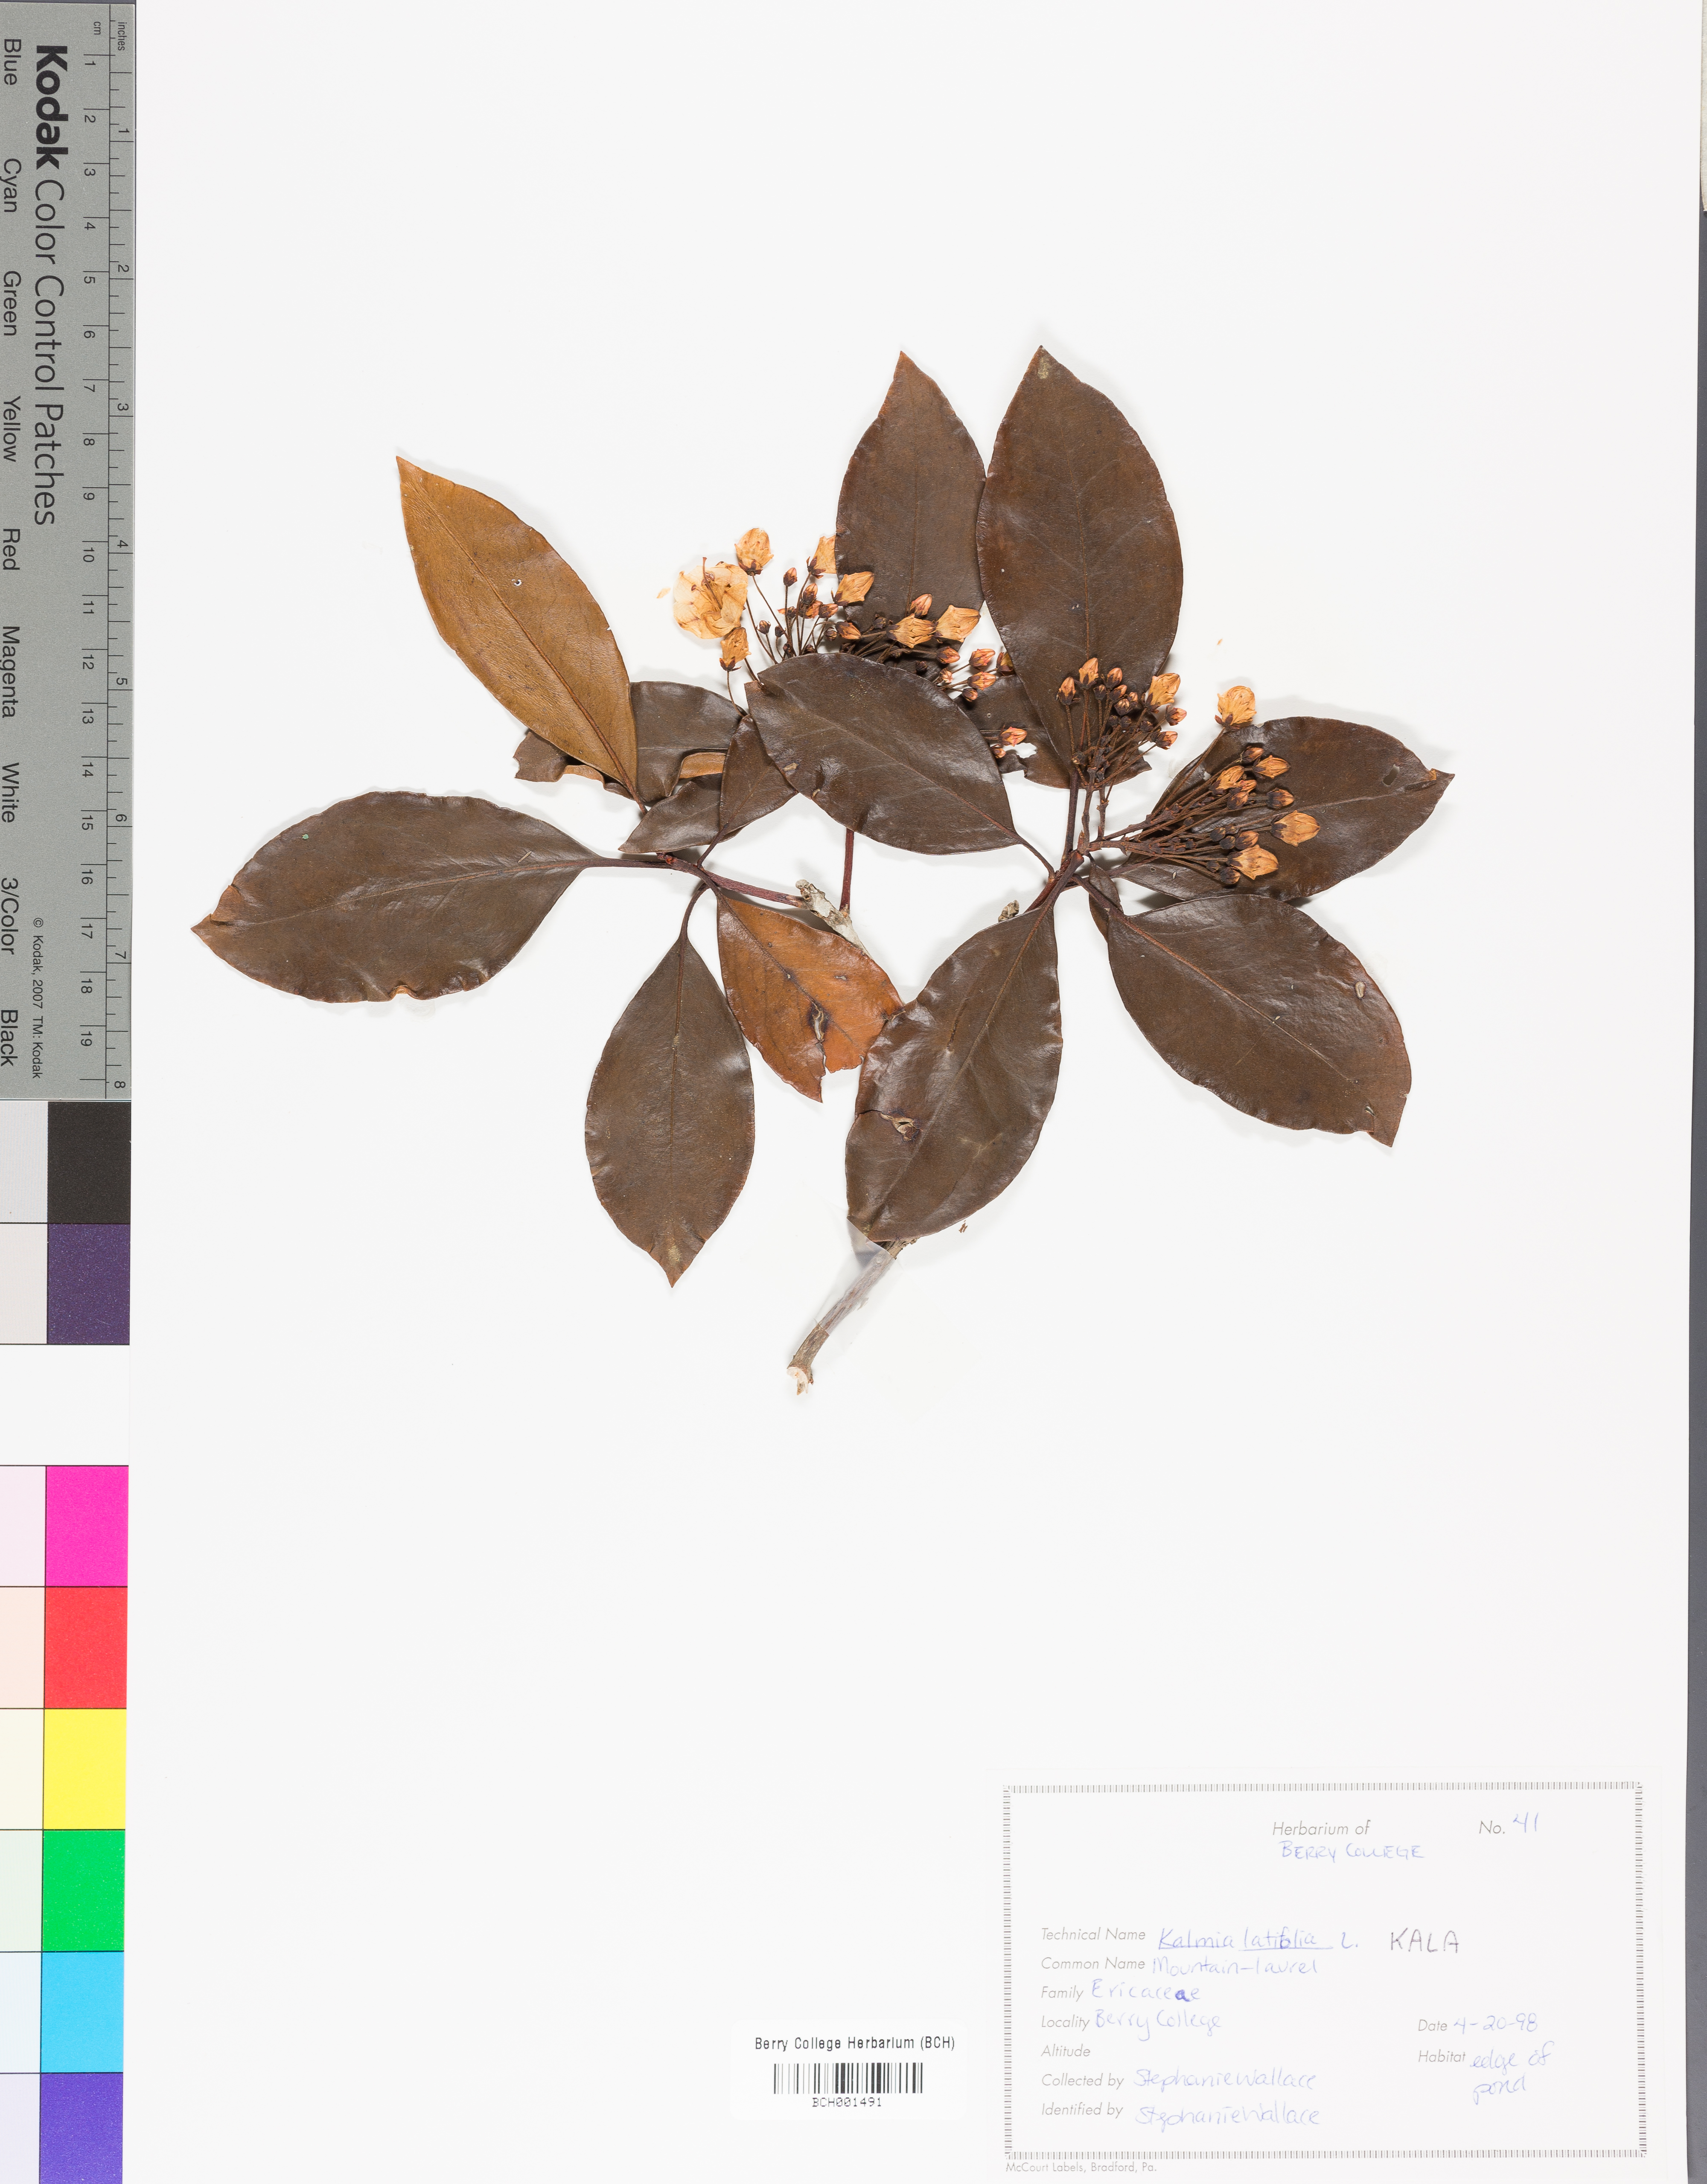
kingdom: Plantae
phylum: Tracheophyta
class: Magnoliopsida
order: Ericales
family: Ericaceae
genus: Kalmia
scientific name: Kalmia latifolia
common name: Mountain-laurel
